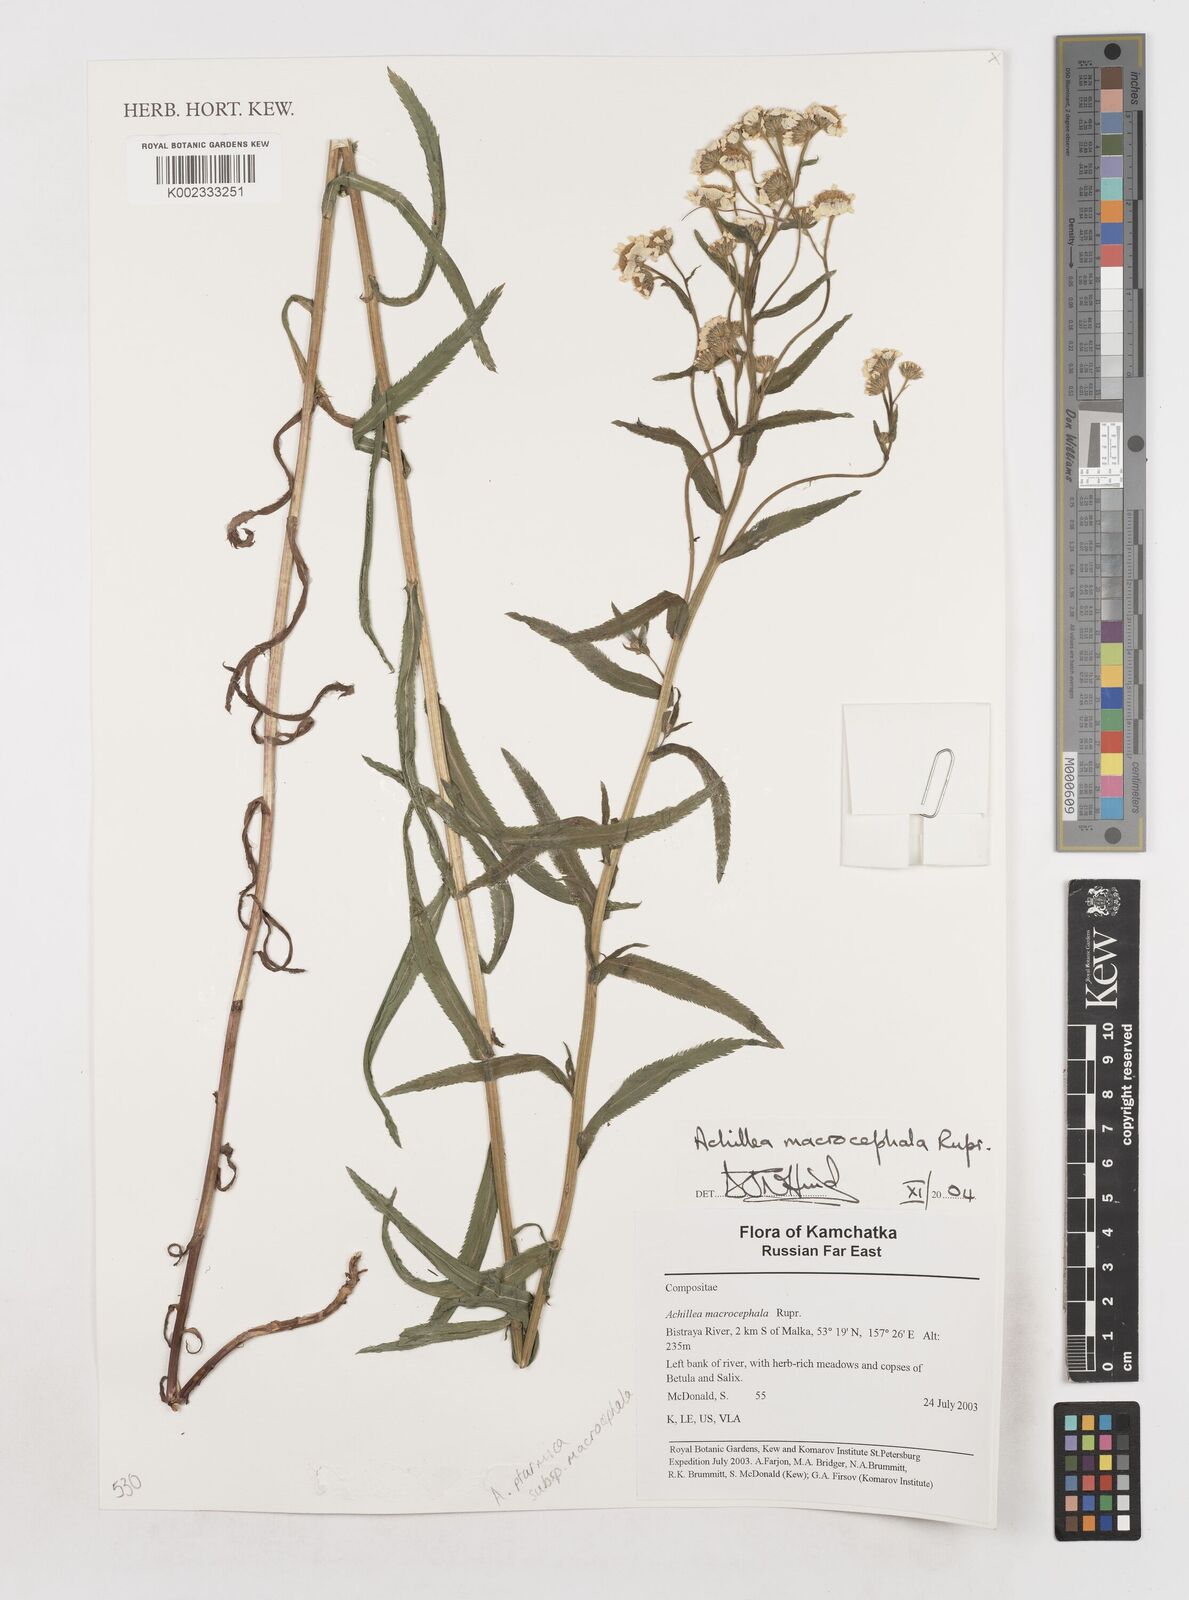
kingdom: Plantae
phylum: Tracheophyta
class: Magnoliopsida
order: Asterales
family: Asteraceae
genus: Achillea
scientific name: Achillea ptarmica
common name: Sneezeweed
